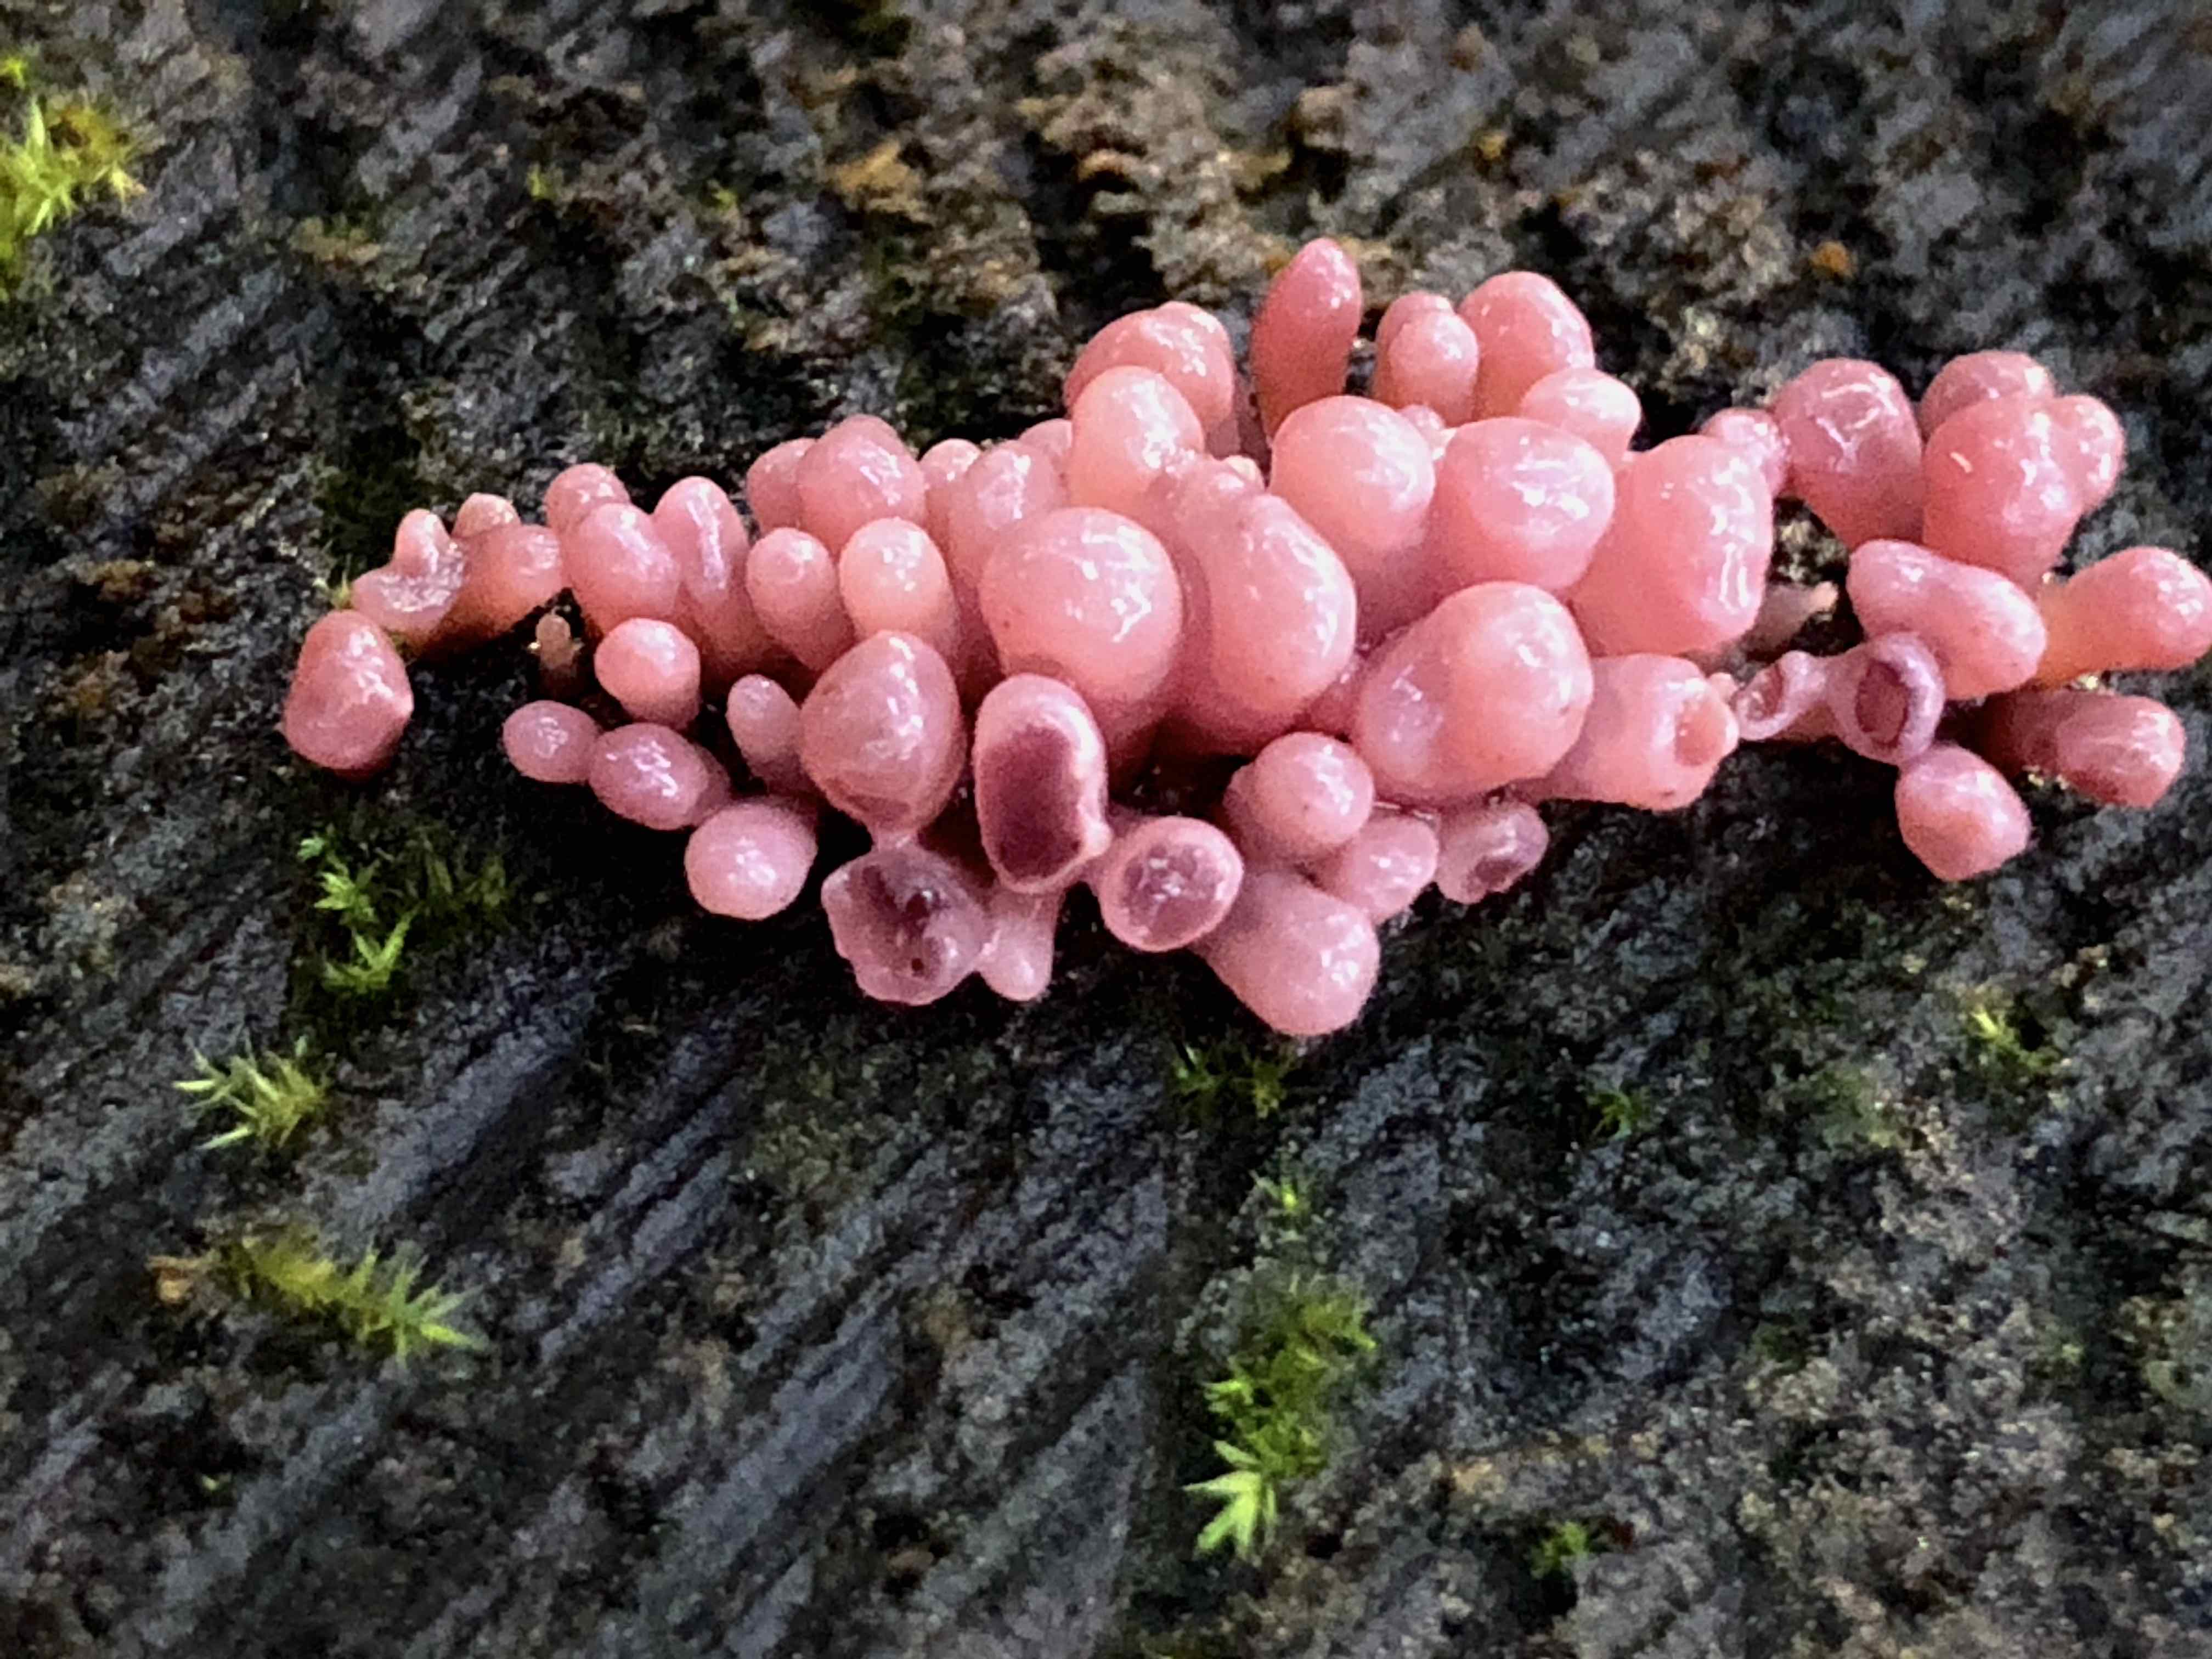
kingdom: Fungi
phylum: Ascomycota
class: Leotiomycetes
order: Helotiales
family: Gelatinodiscaceae
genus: Ascocoryne
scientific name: Ascocoryne sarcoides
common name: rødlilla sejskive
